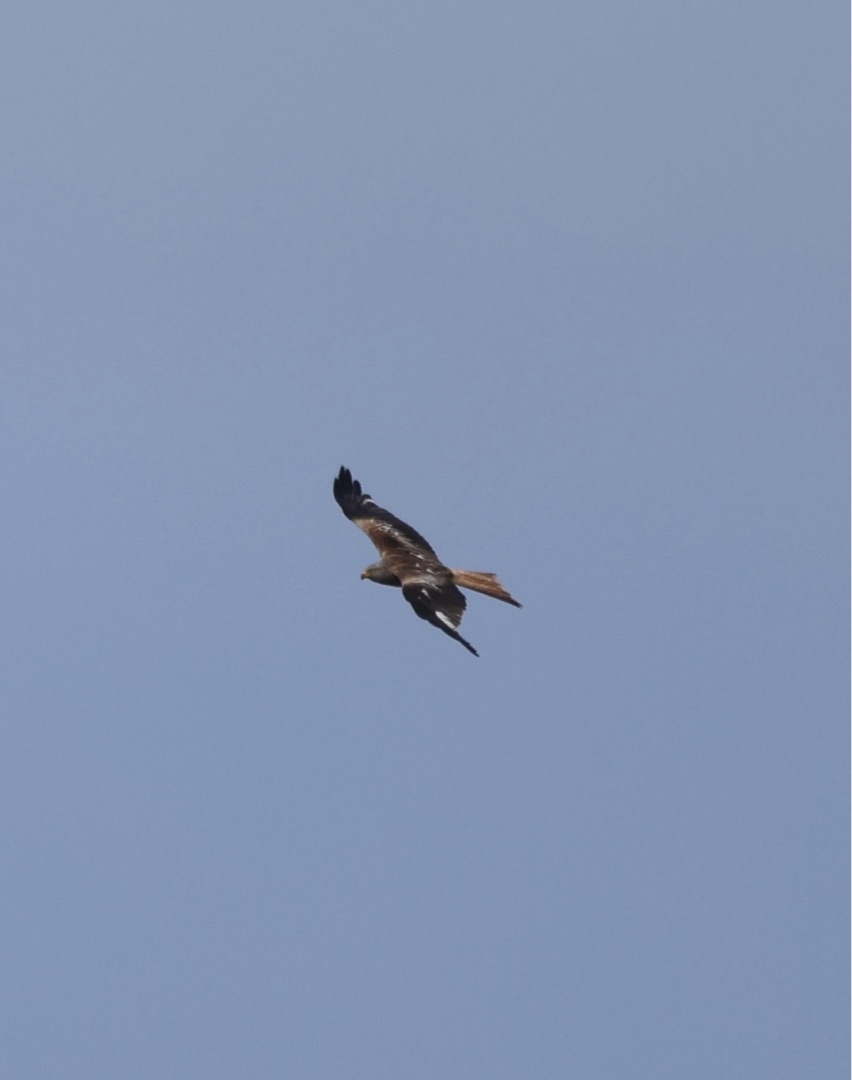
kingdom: Animalia
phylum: Chordata
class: Aves
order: Accipitriformes
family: Accipitridae
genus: Milvus
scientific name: Milvus milvus
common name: Rød glente
